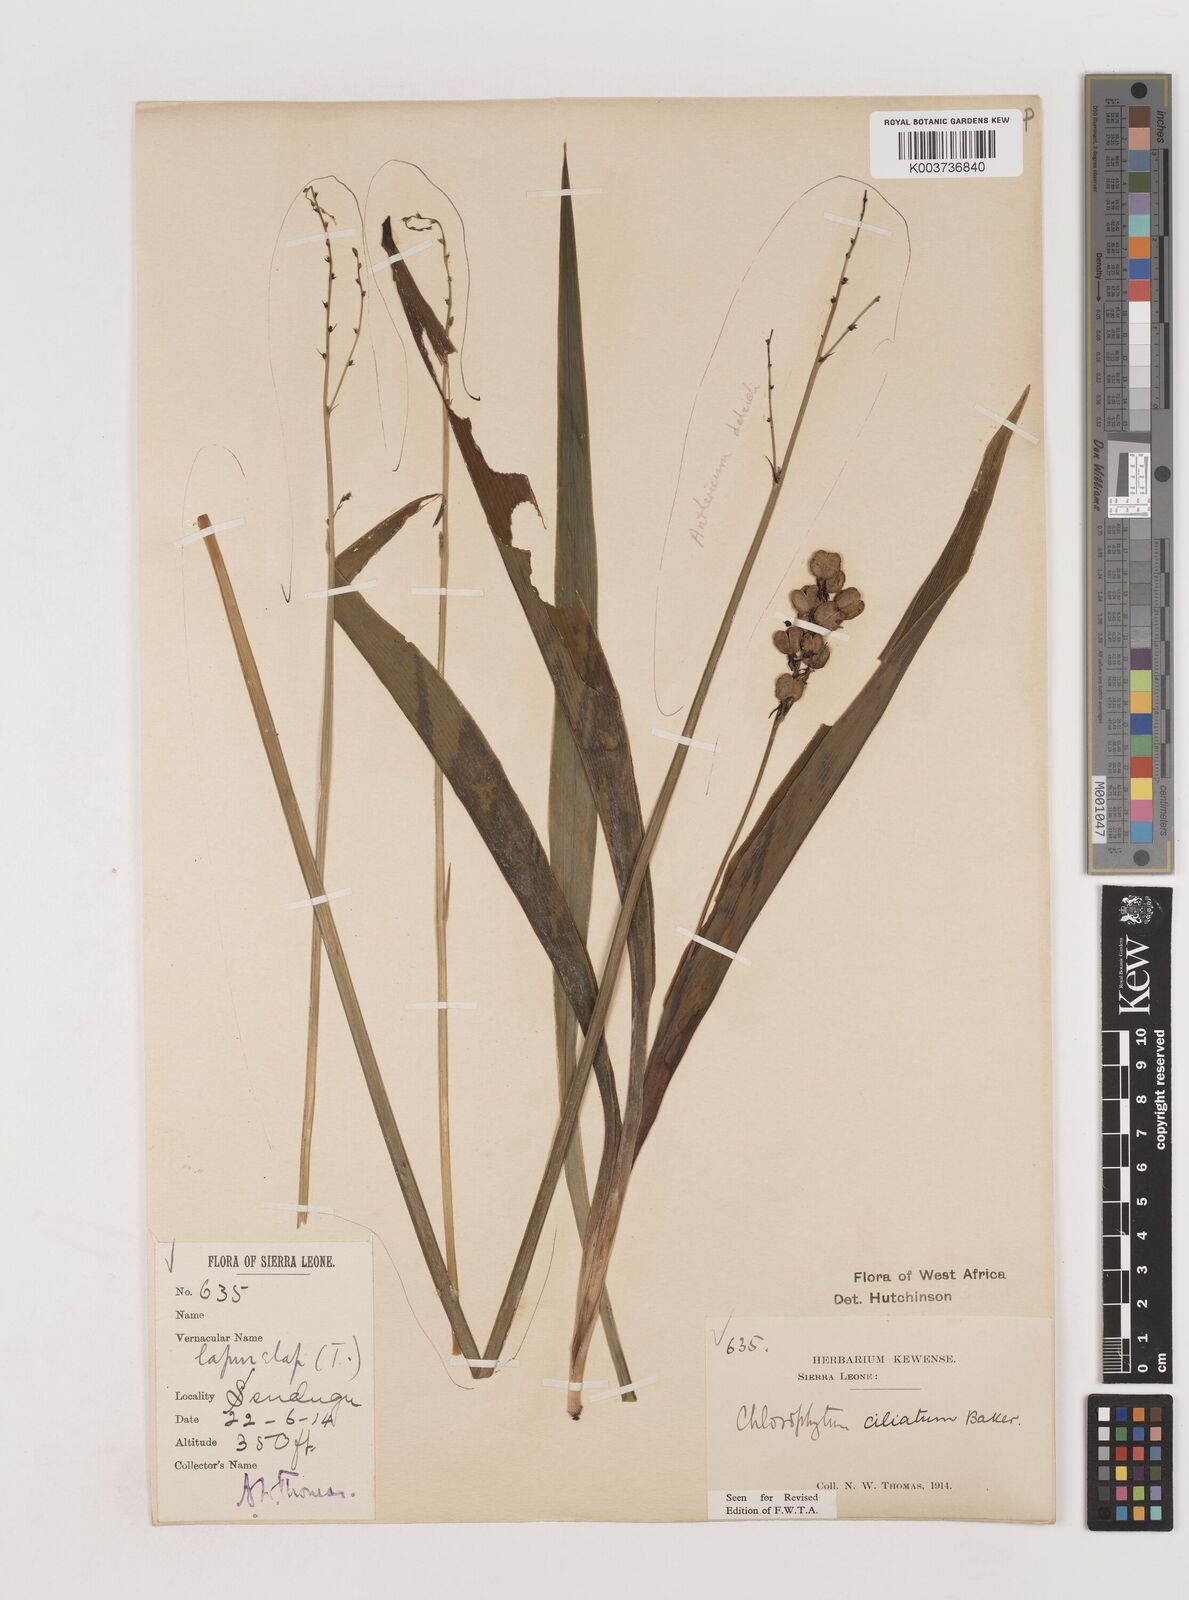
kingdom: Plantae
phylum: Tracheophyta
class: Liliopsida
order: Asparagales
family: Asparagaceae
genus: Chlorophytum
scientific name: Chlorophytum blepharophyllum
